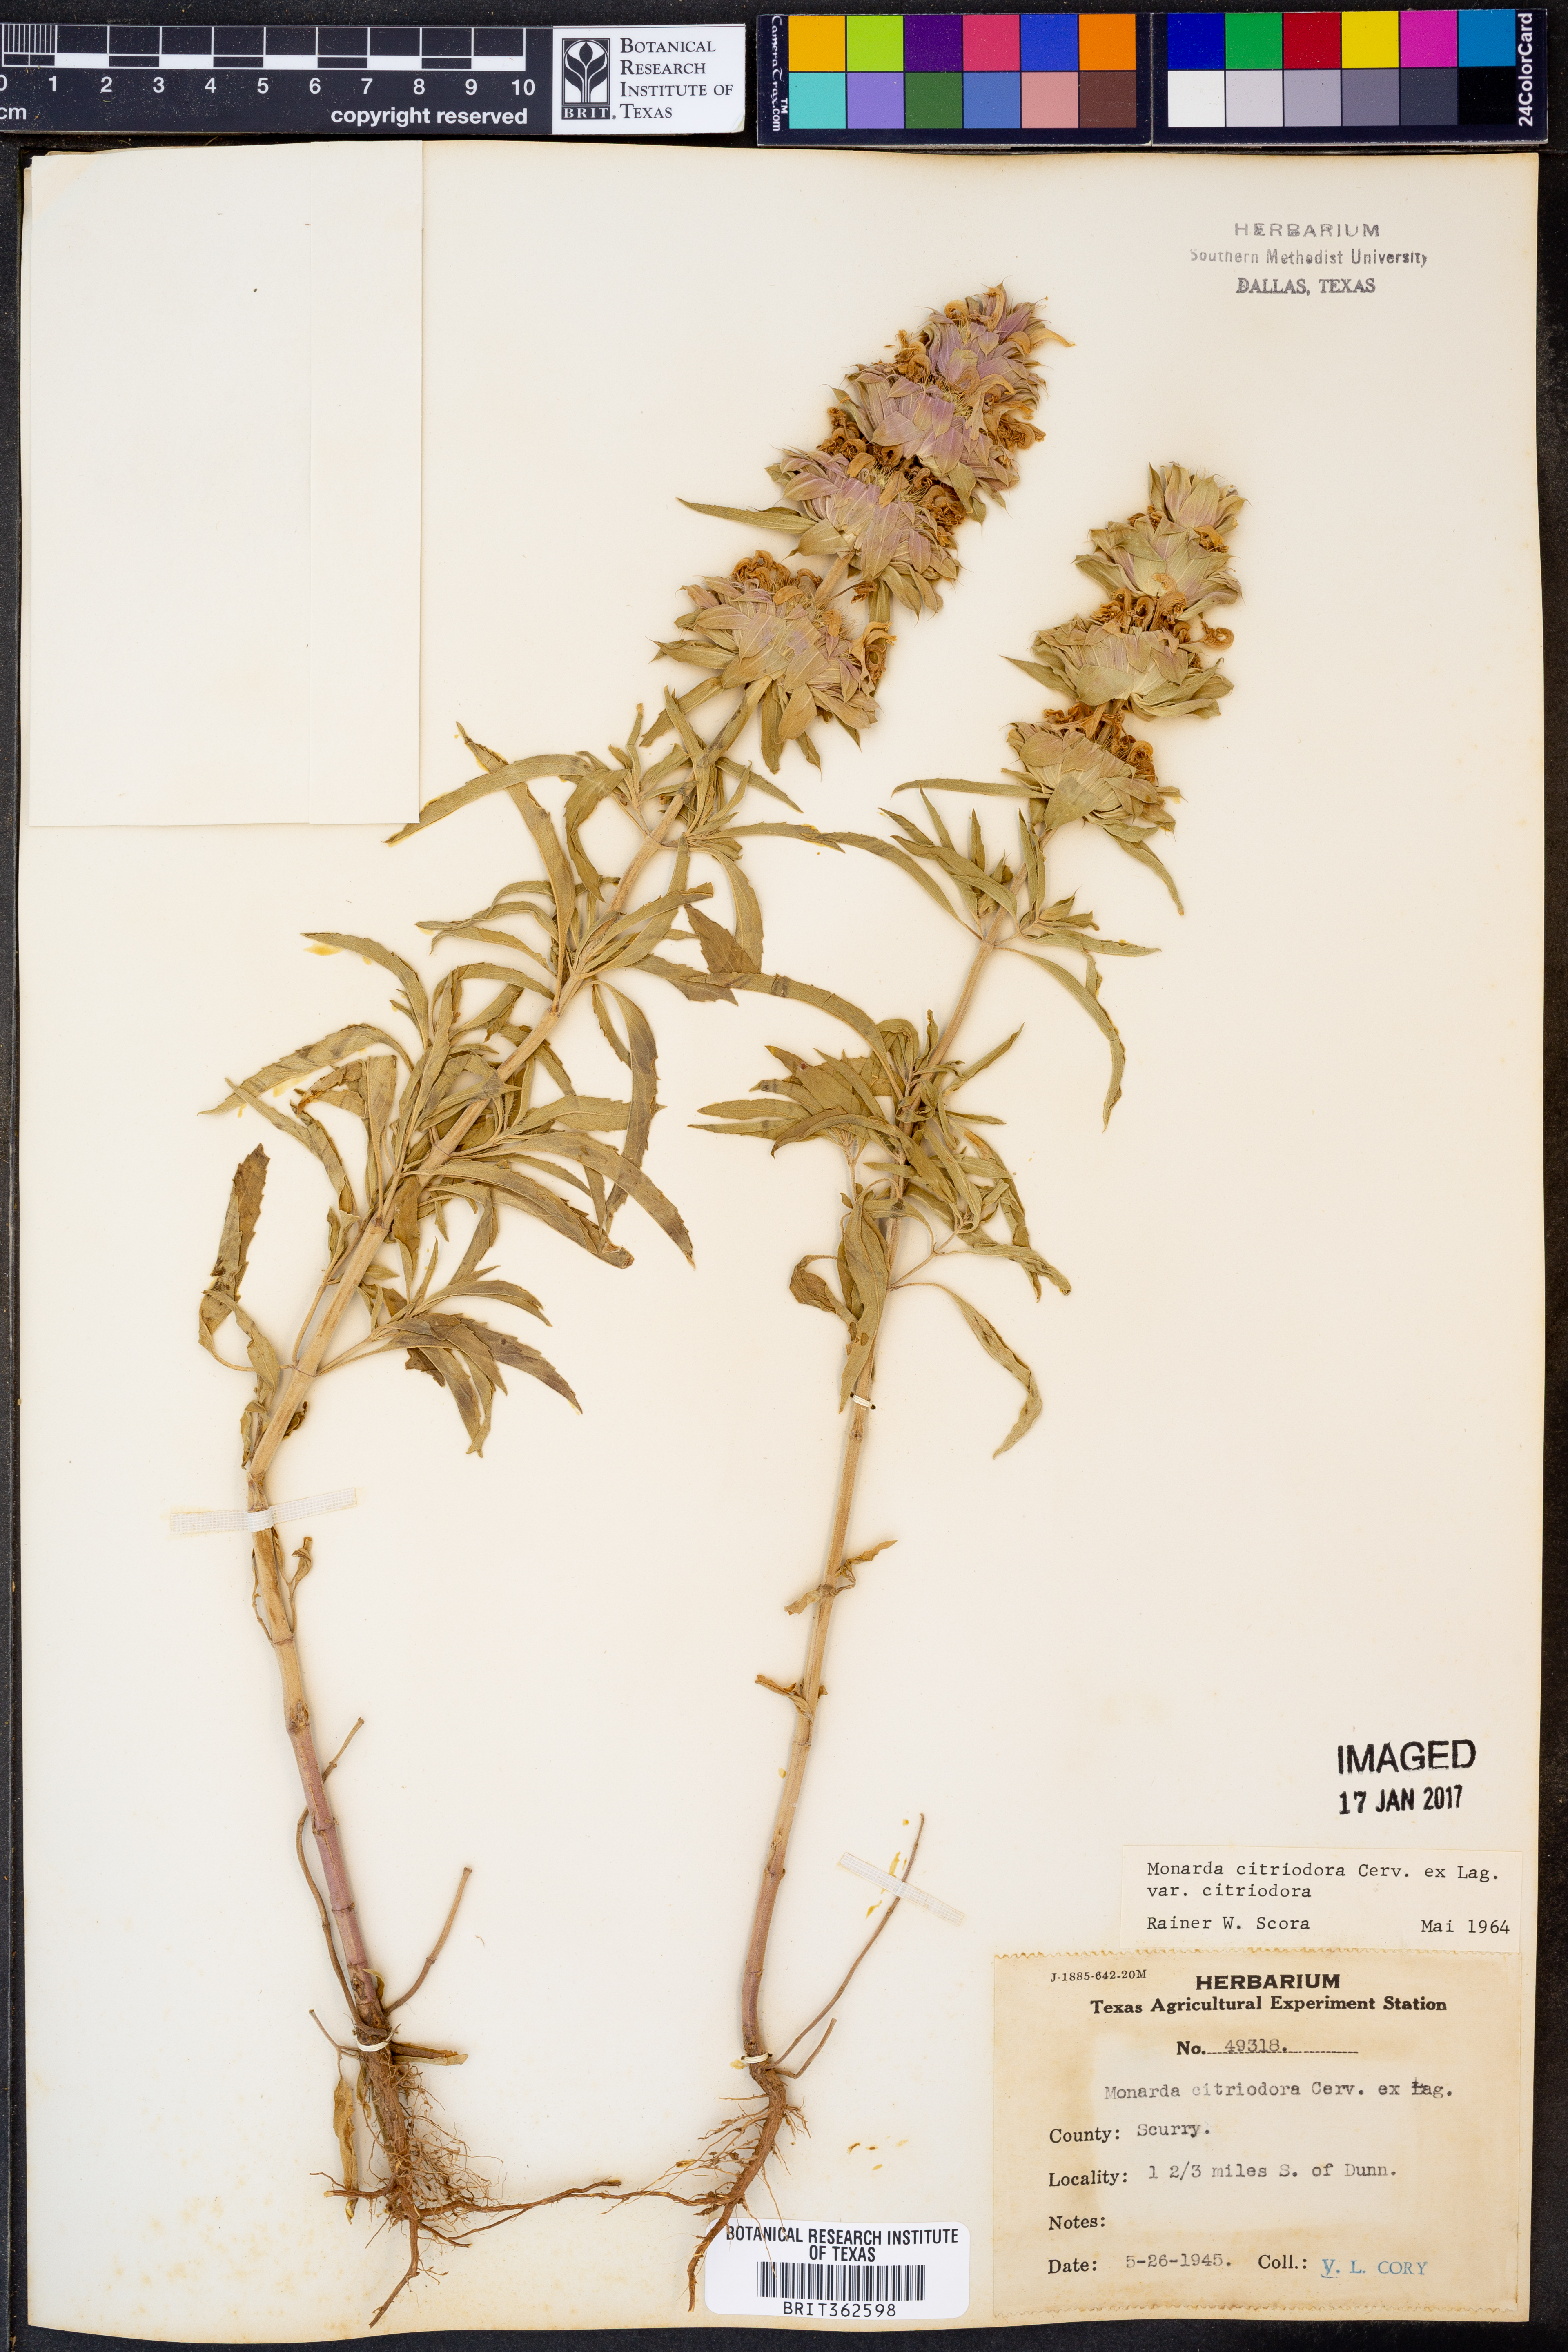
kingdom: Plantae
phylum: Tracheophyta
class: Magnoliopsida
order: Lamiales
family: Lamiaceae
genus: Monarda
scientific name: Monarda citriodora
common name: Lemon beebalm
